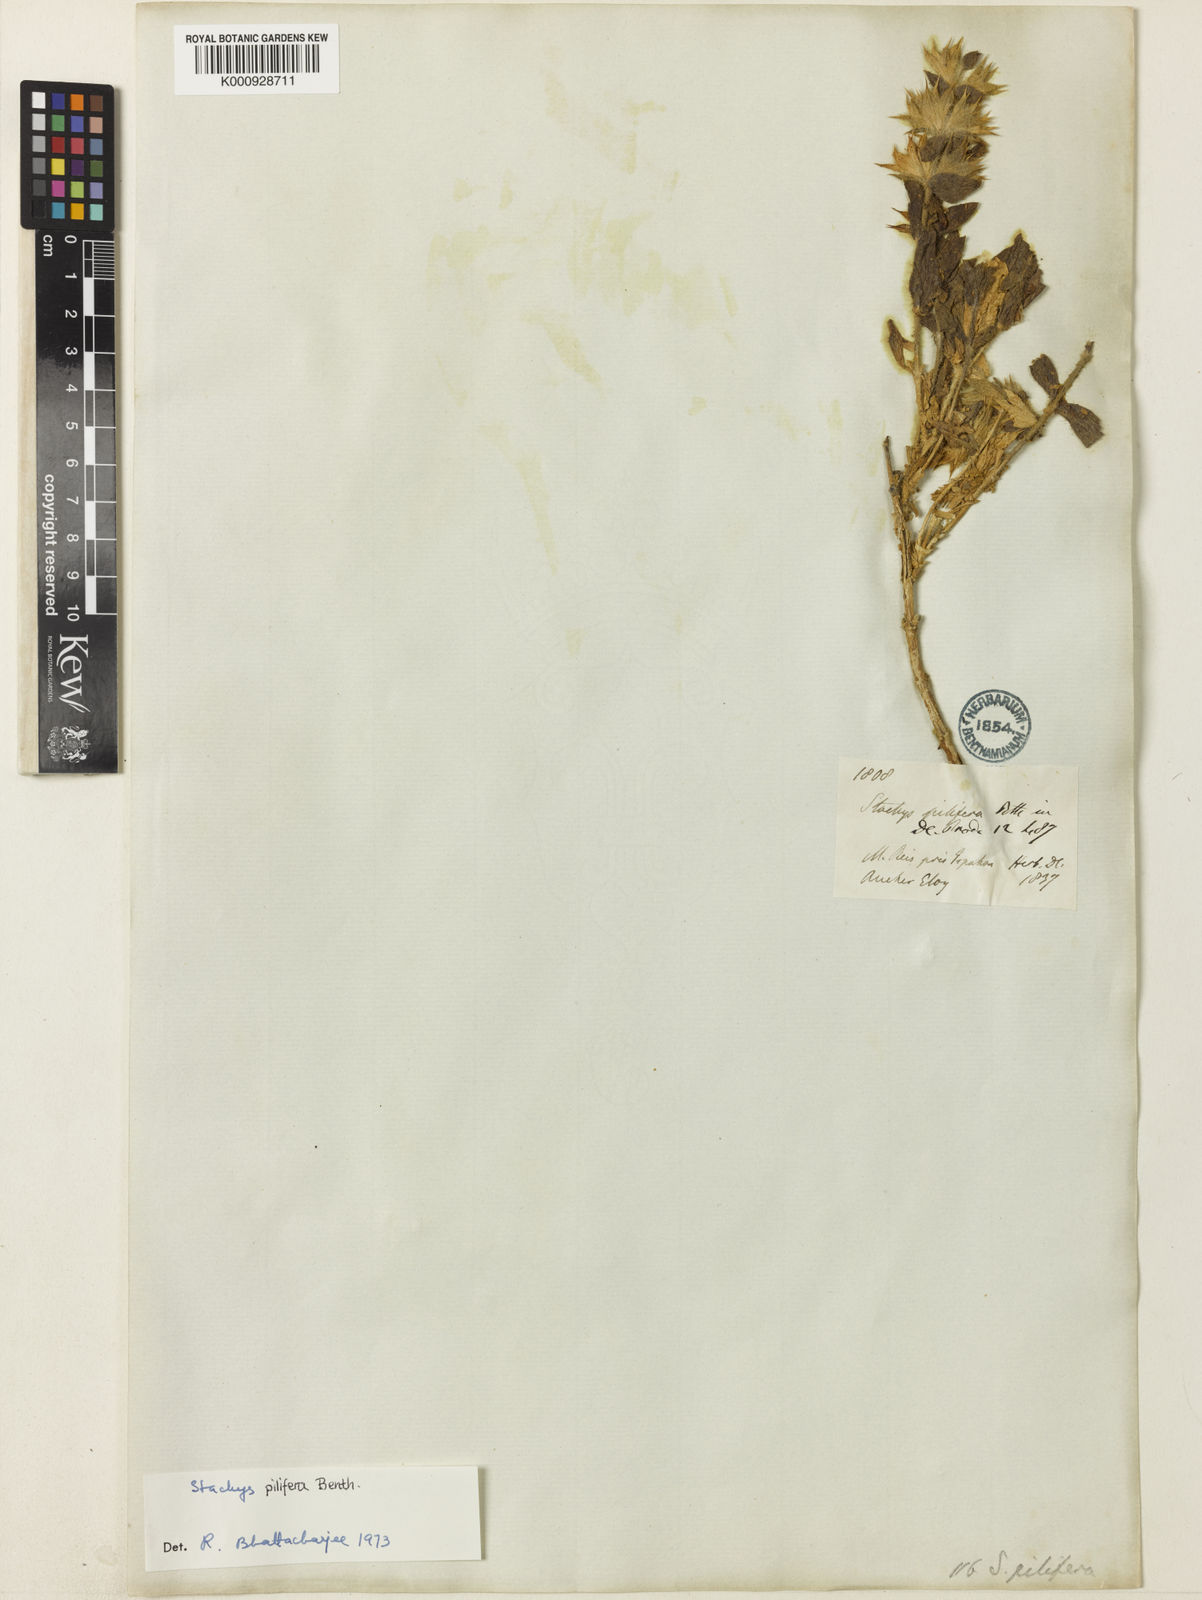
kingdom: Plantae
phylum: Tracheophyta
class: Magnoliopsida
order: Lamiales
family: Lamiaceae
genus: Stachys
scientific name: Stachys pilifera
